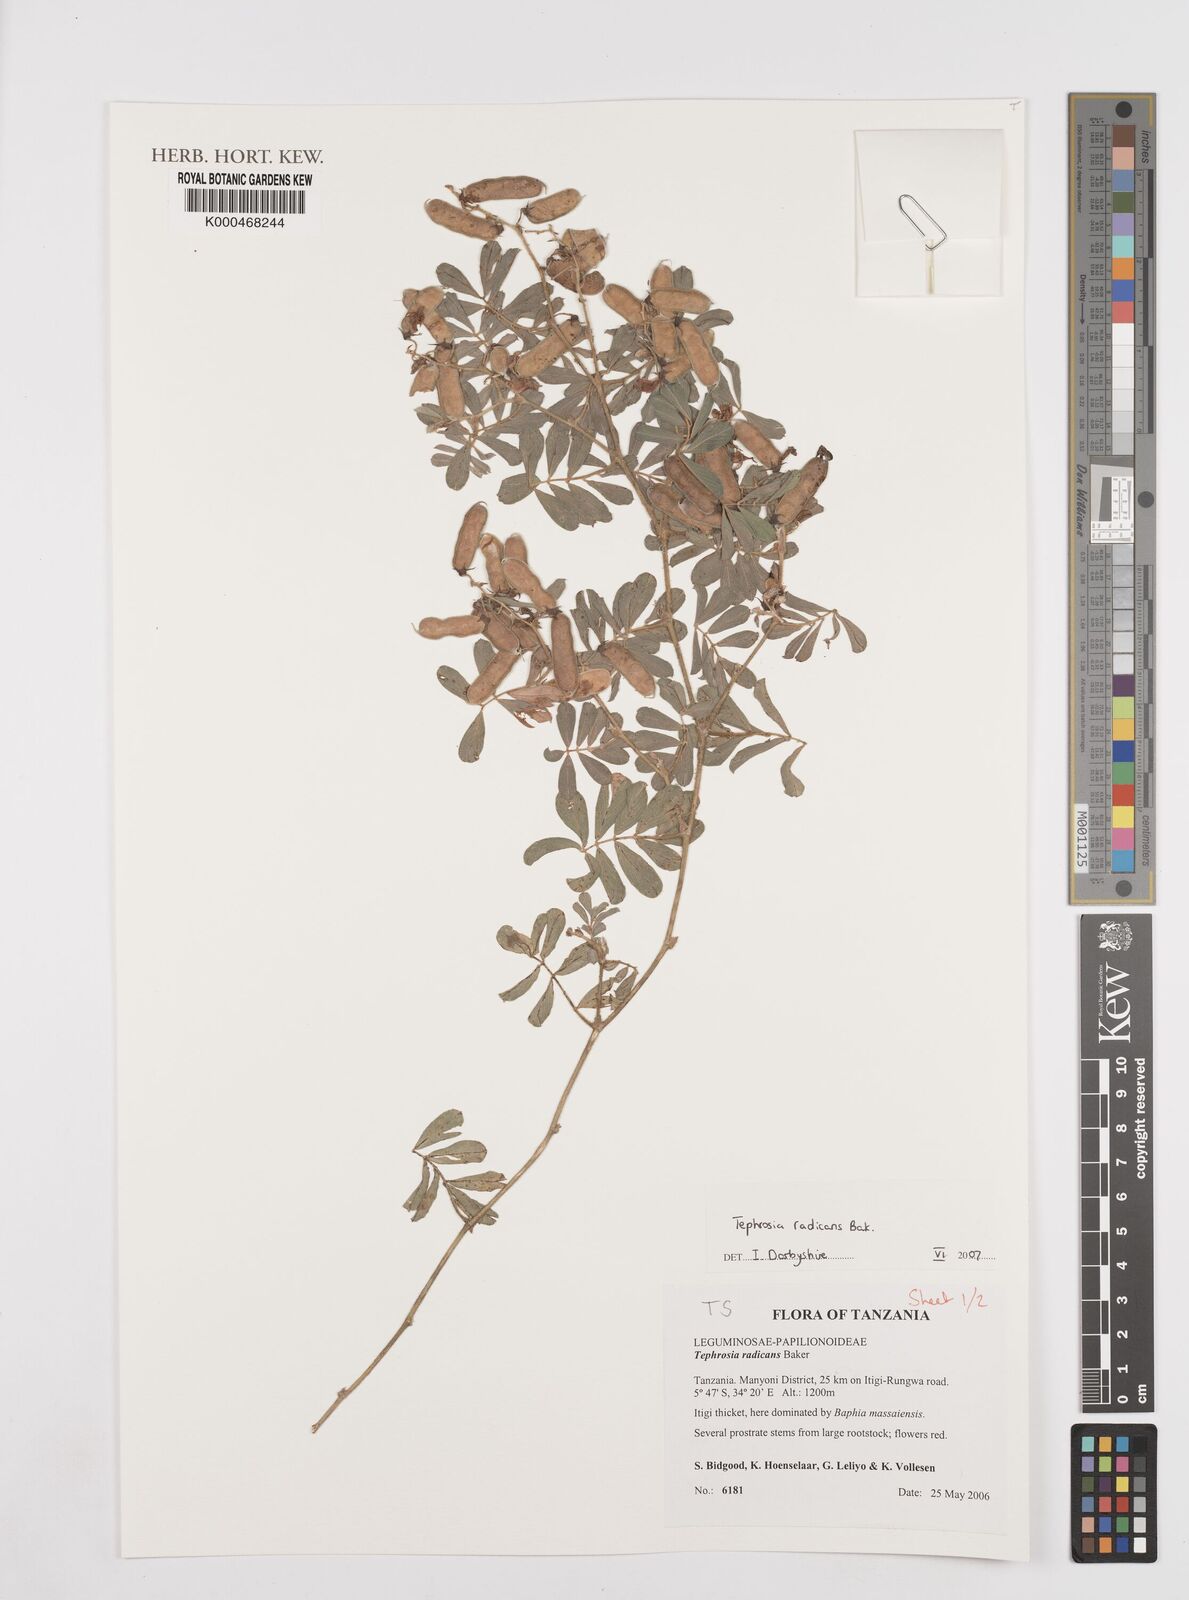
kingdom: Plantae
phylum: Tracheophyta
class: Magnoliopsida
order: Fabales
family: Fabaceae
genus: Tephrosia
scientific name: Tephrosia radicans
